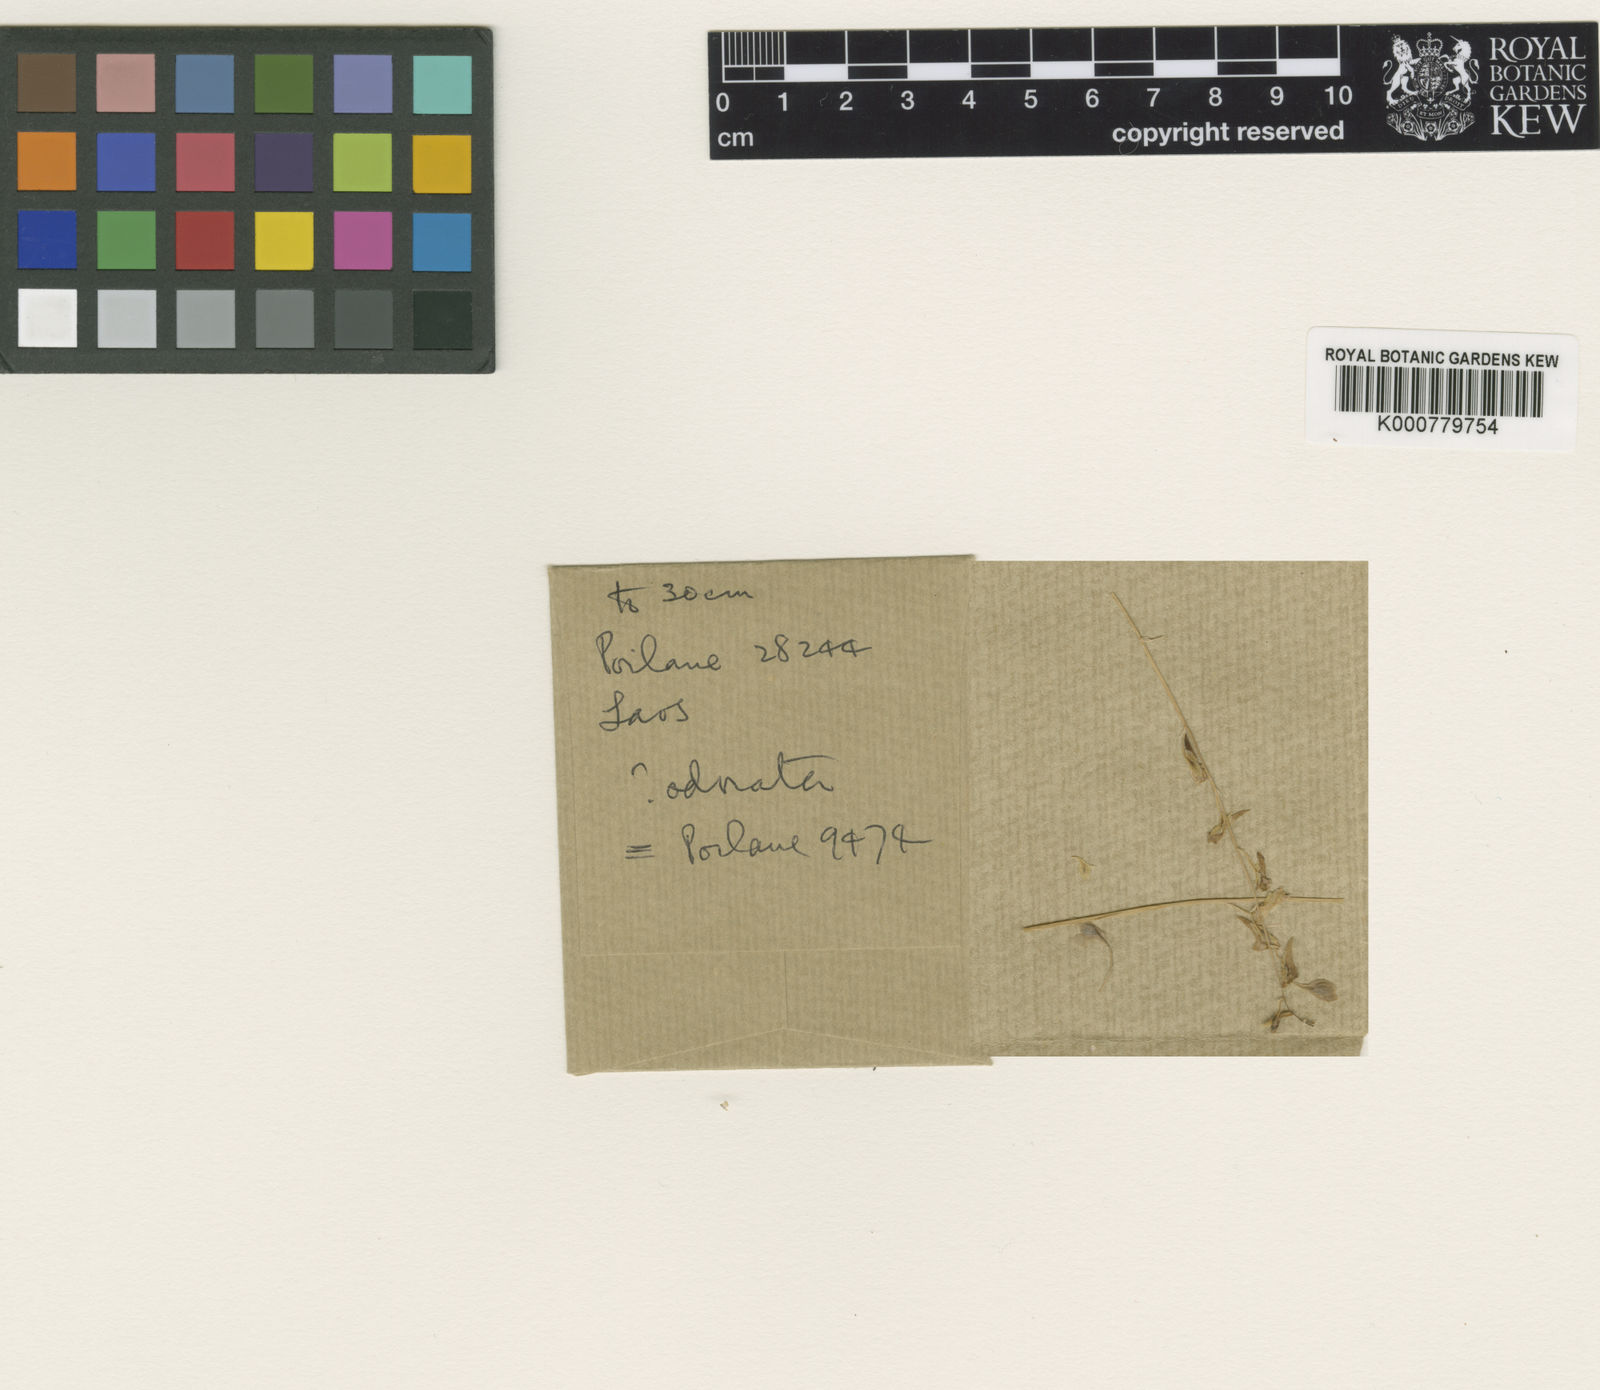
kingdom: Plantae
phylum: Tracheophyta
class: Magnoliopsida
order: Lamiales
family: Lentibulariaceae
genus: Utricularia
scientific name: Utricularia odorata
